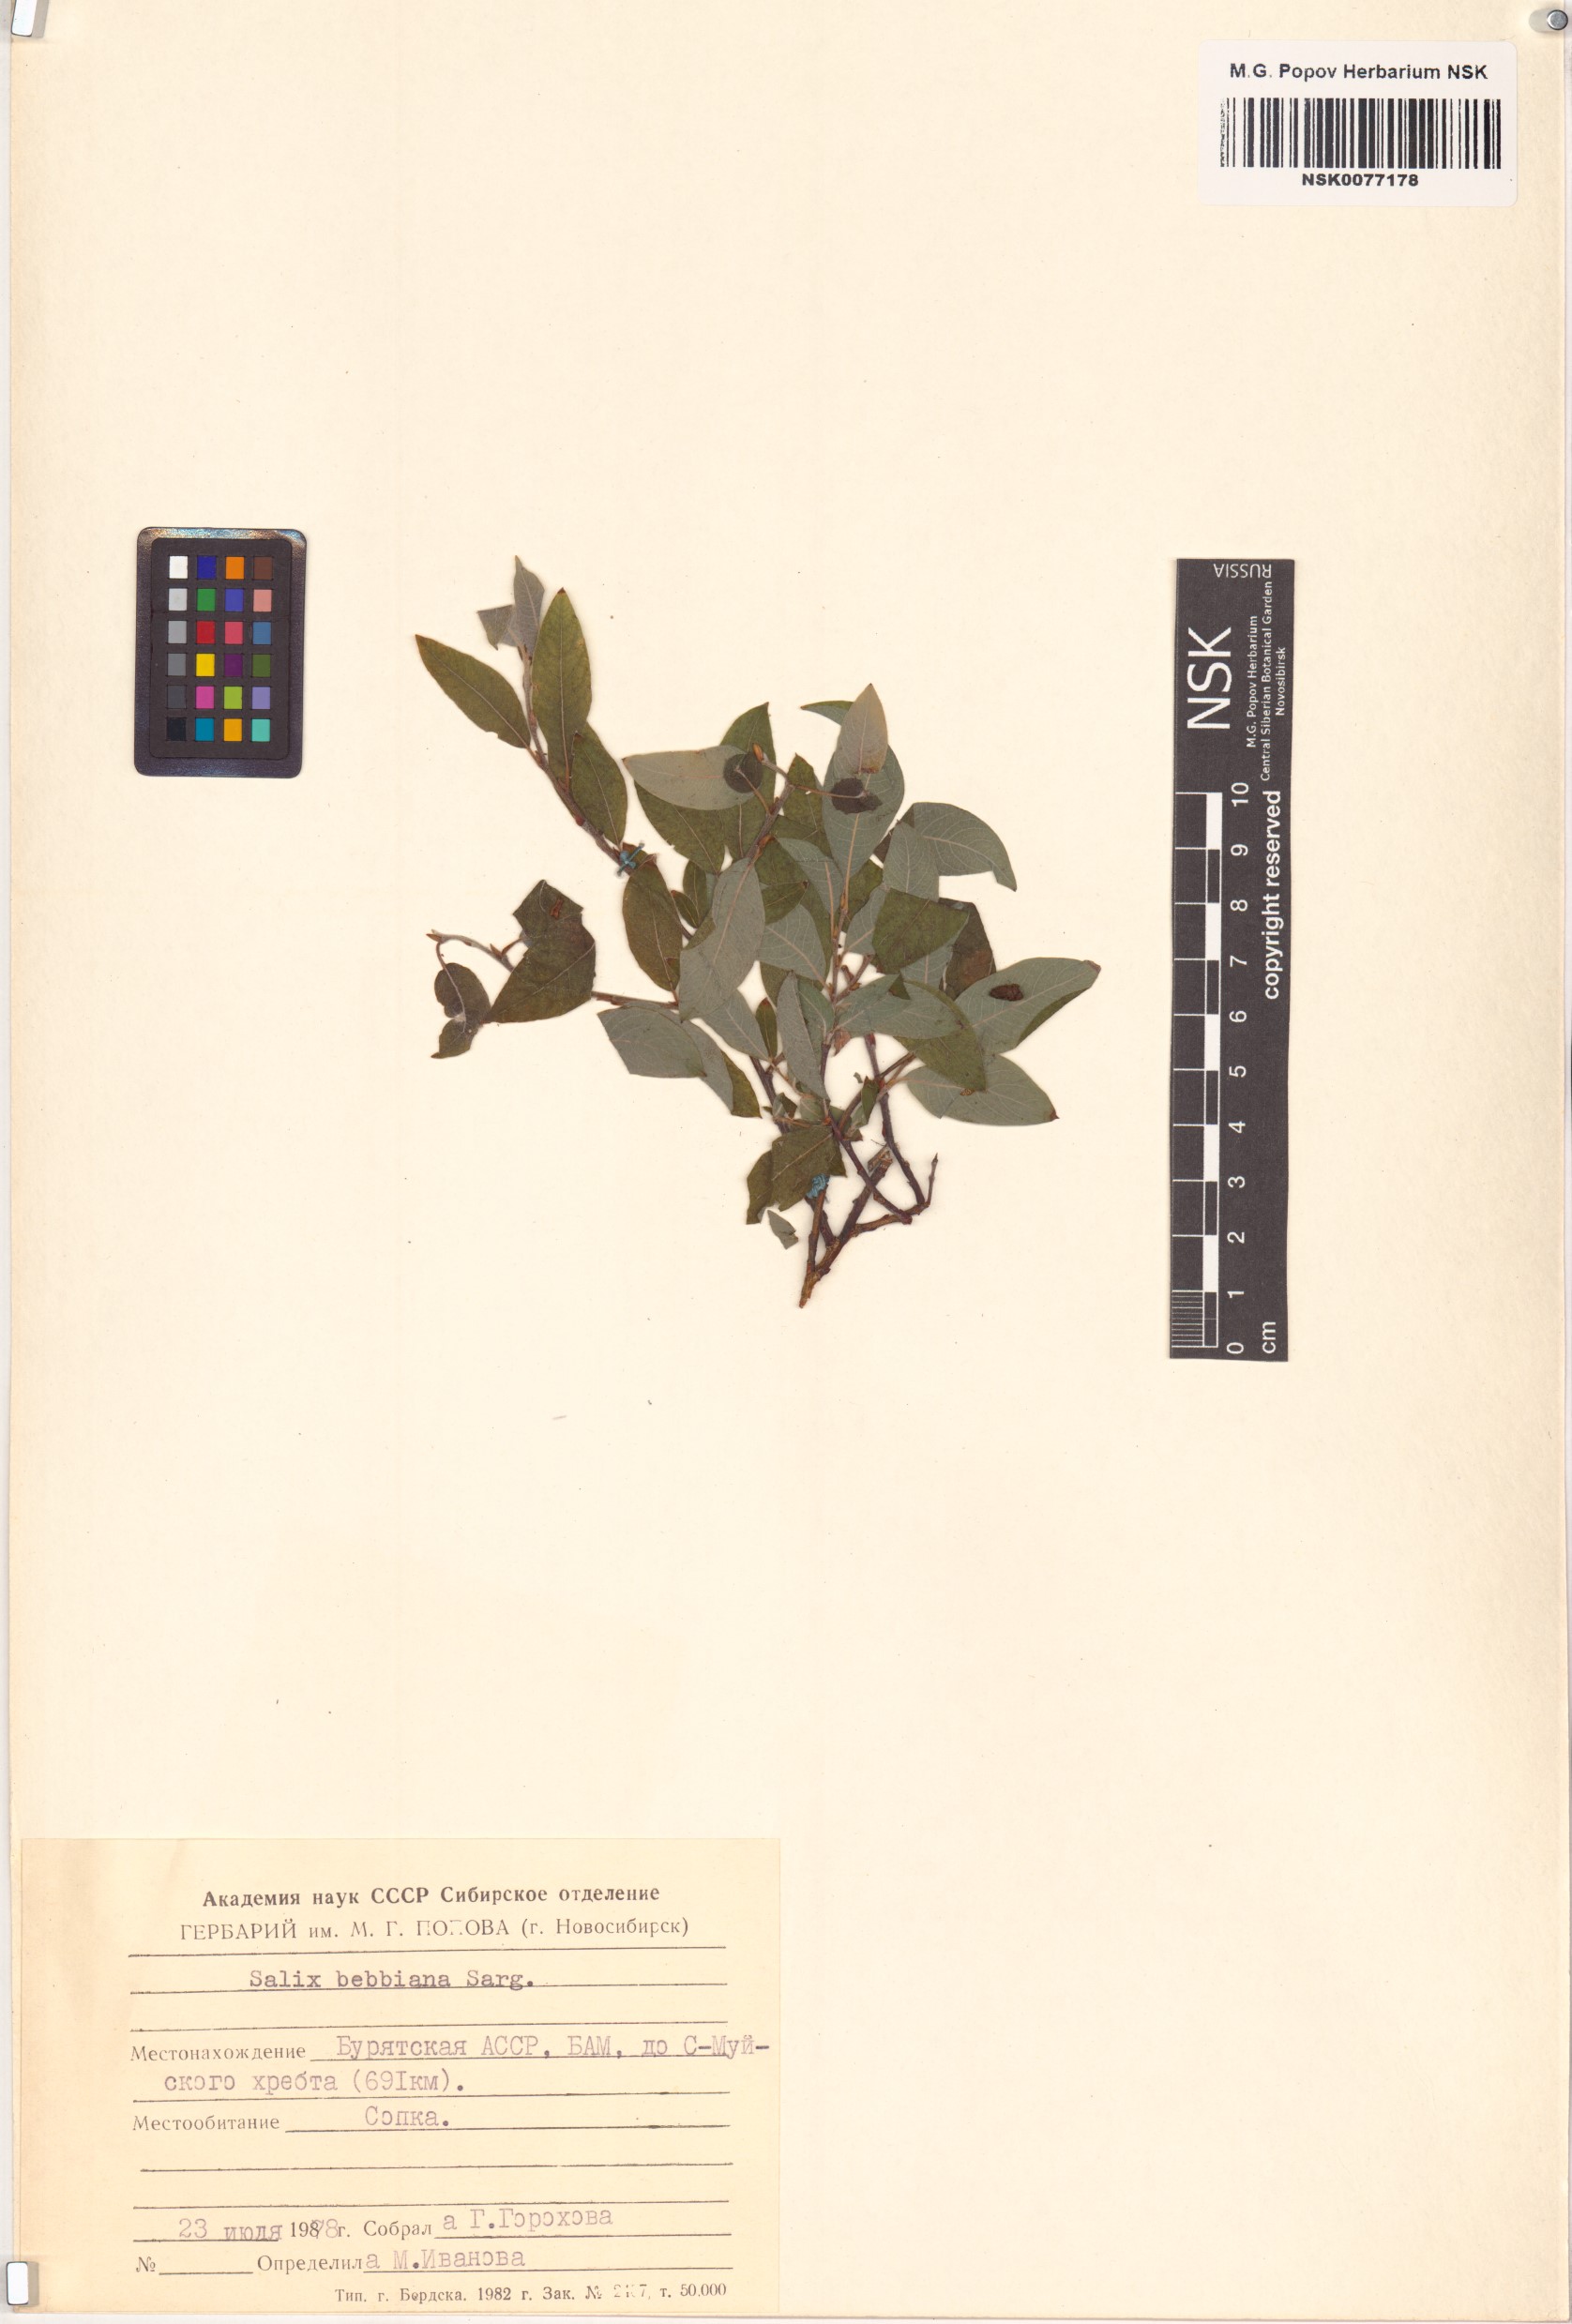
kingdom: Plantae
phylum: Tracheophyta
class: Magnoliopsida
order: Malpighiales
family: Salicaceae
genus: Salix
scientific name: Salix bebbiana
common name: Bebb's willow
